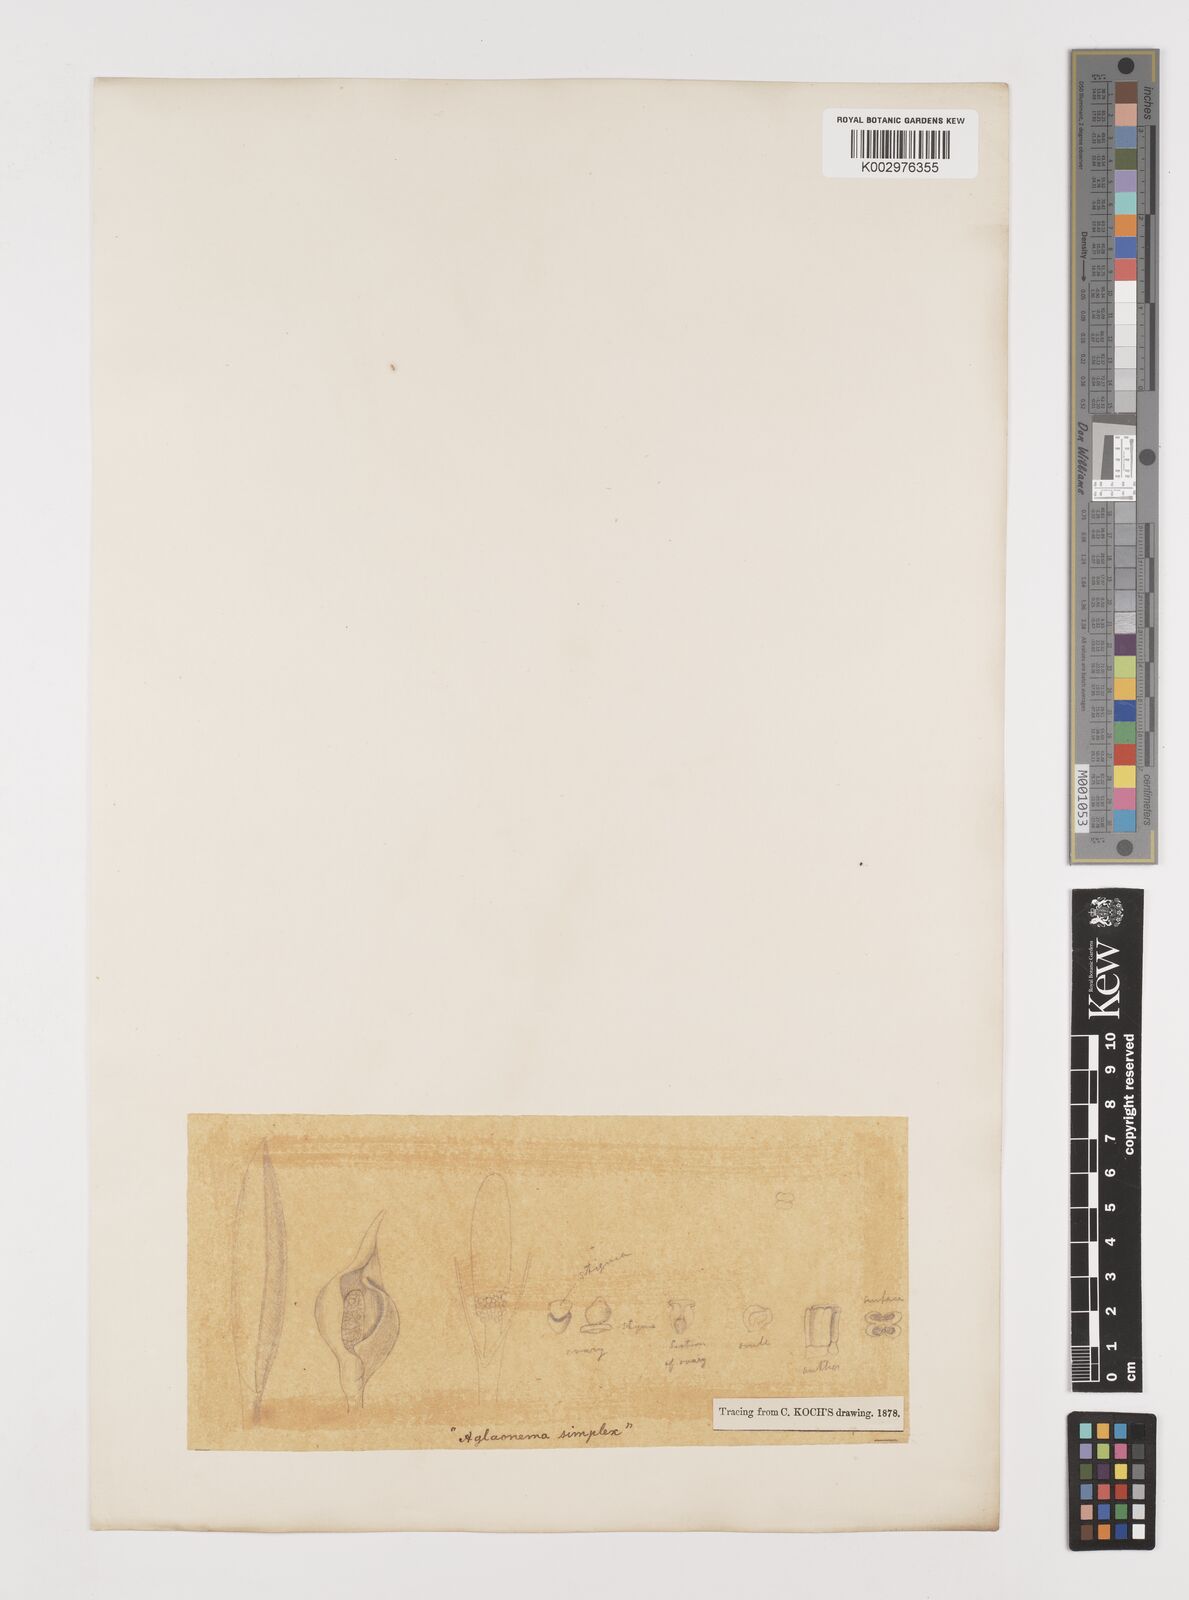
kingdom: Plantae
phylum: Tracheophyta
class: Liliopsida
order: Alismatales
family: Araceae
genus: Aglaonema
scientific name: Aglaonema simplex
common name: Malayan-sword
